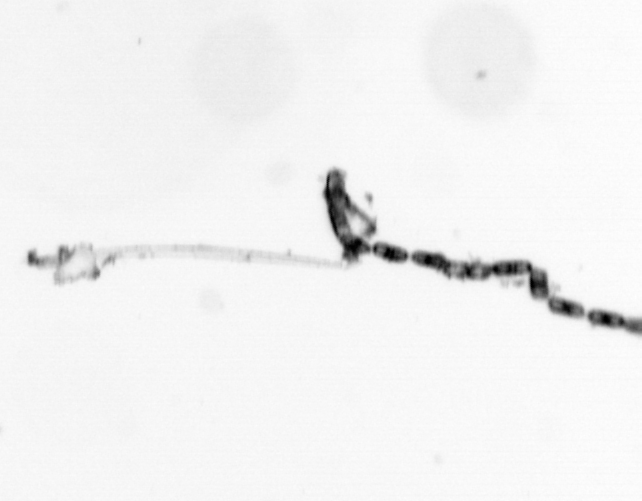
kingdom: Chromista
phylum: Ochrophyta
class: Bacillariophyceae
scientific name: Bacillariophyceae
